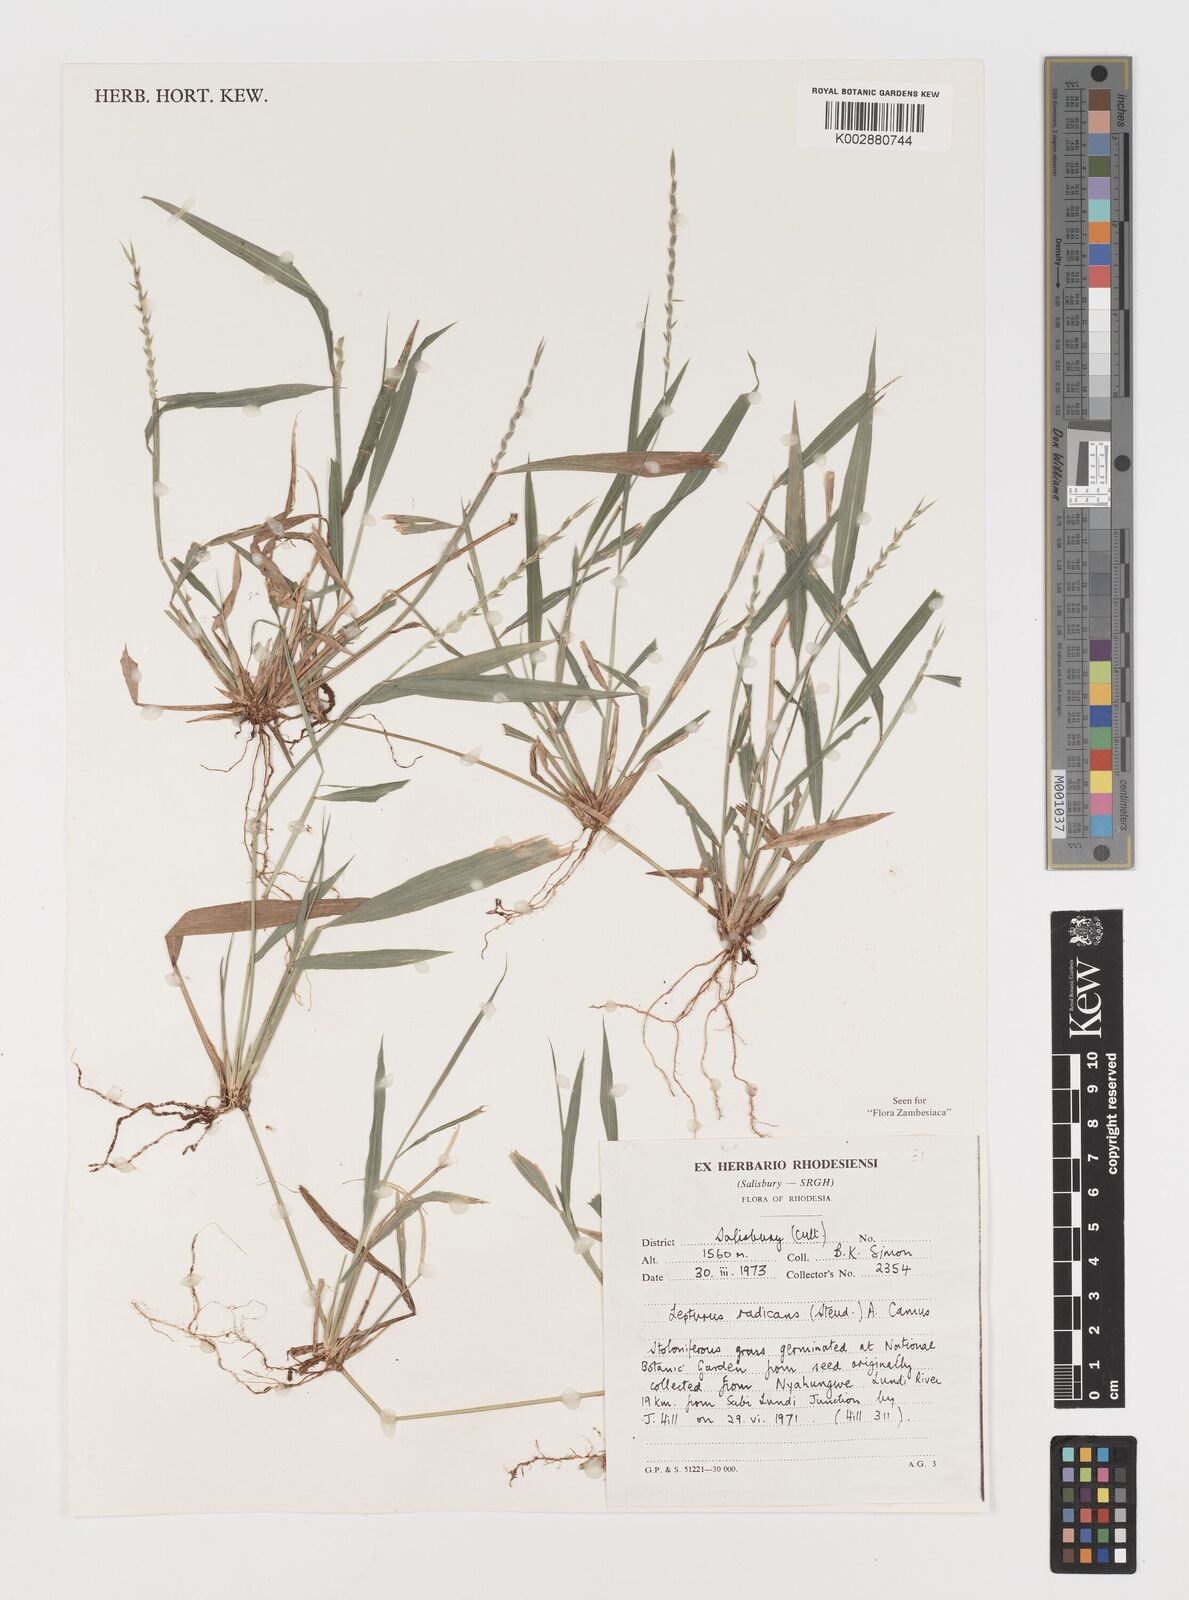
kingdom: Plantae
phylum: Tracheophyta
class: Liliopsida
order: Poales
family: Poaceae
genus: Lepturus
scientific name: Lepturus radicans
